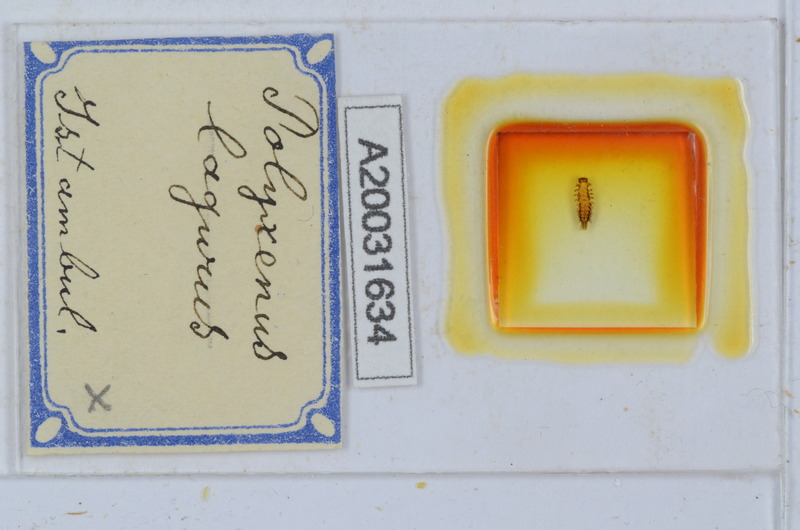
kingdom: Animalia
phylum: Arthropoda
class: Diplopoda
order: Polyxenida
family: Polyxenidae
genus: Polyxenus
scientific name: Polyxenus lagurus
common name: Bristly millipede
